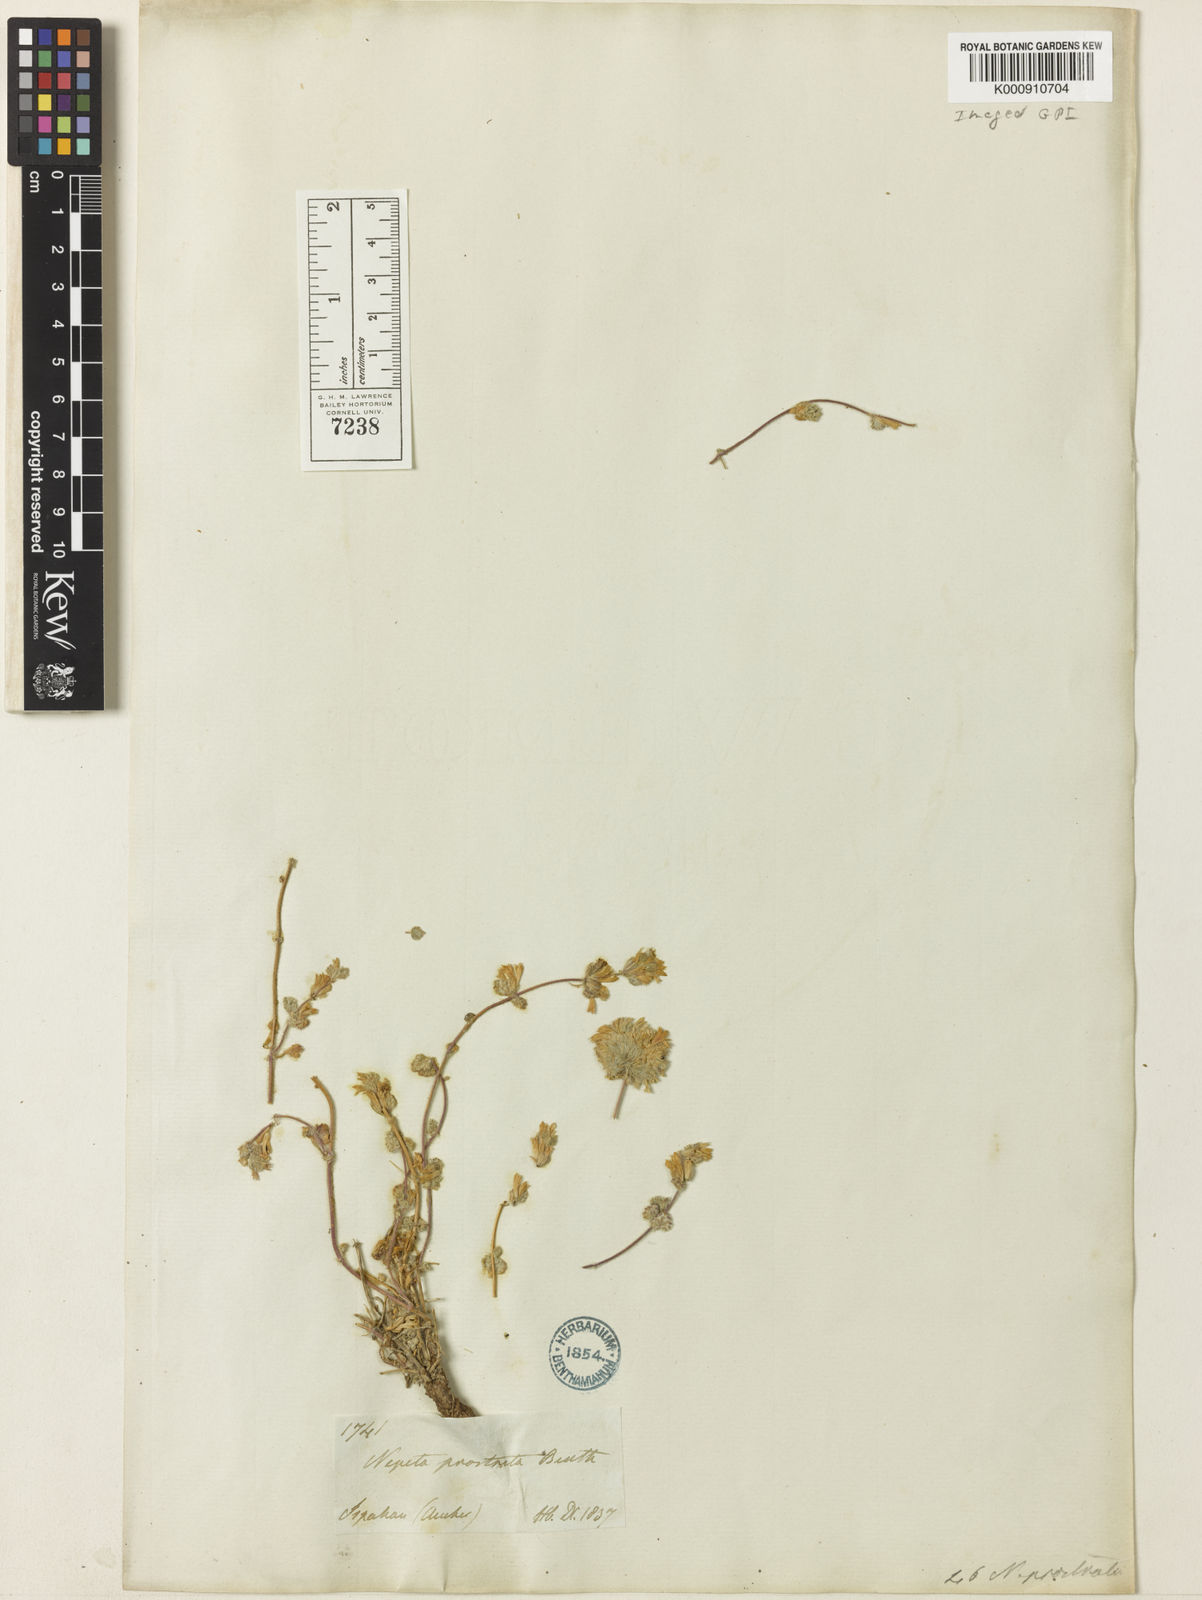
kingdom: Plantae
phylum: Tracheophyta
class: Magnoliopsida
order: Lamiales
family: Lamiaceae
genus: Nepeta
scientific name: Nepeta prostrata
